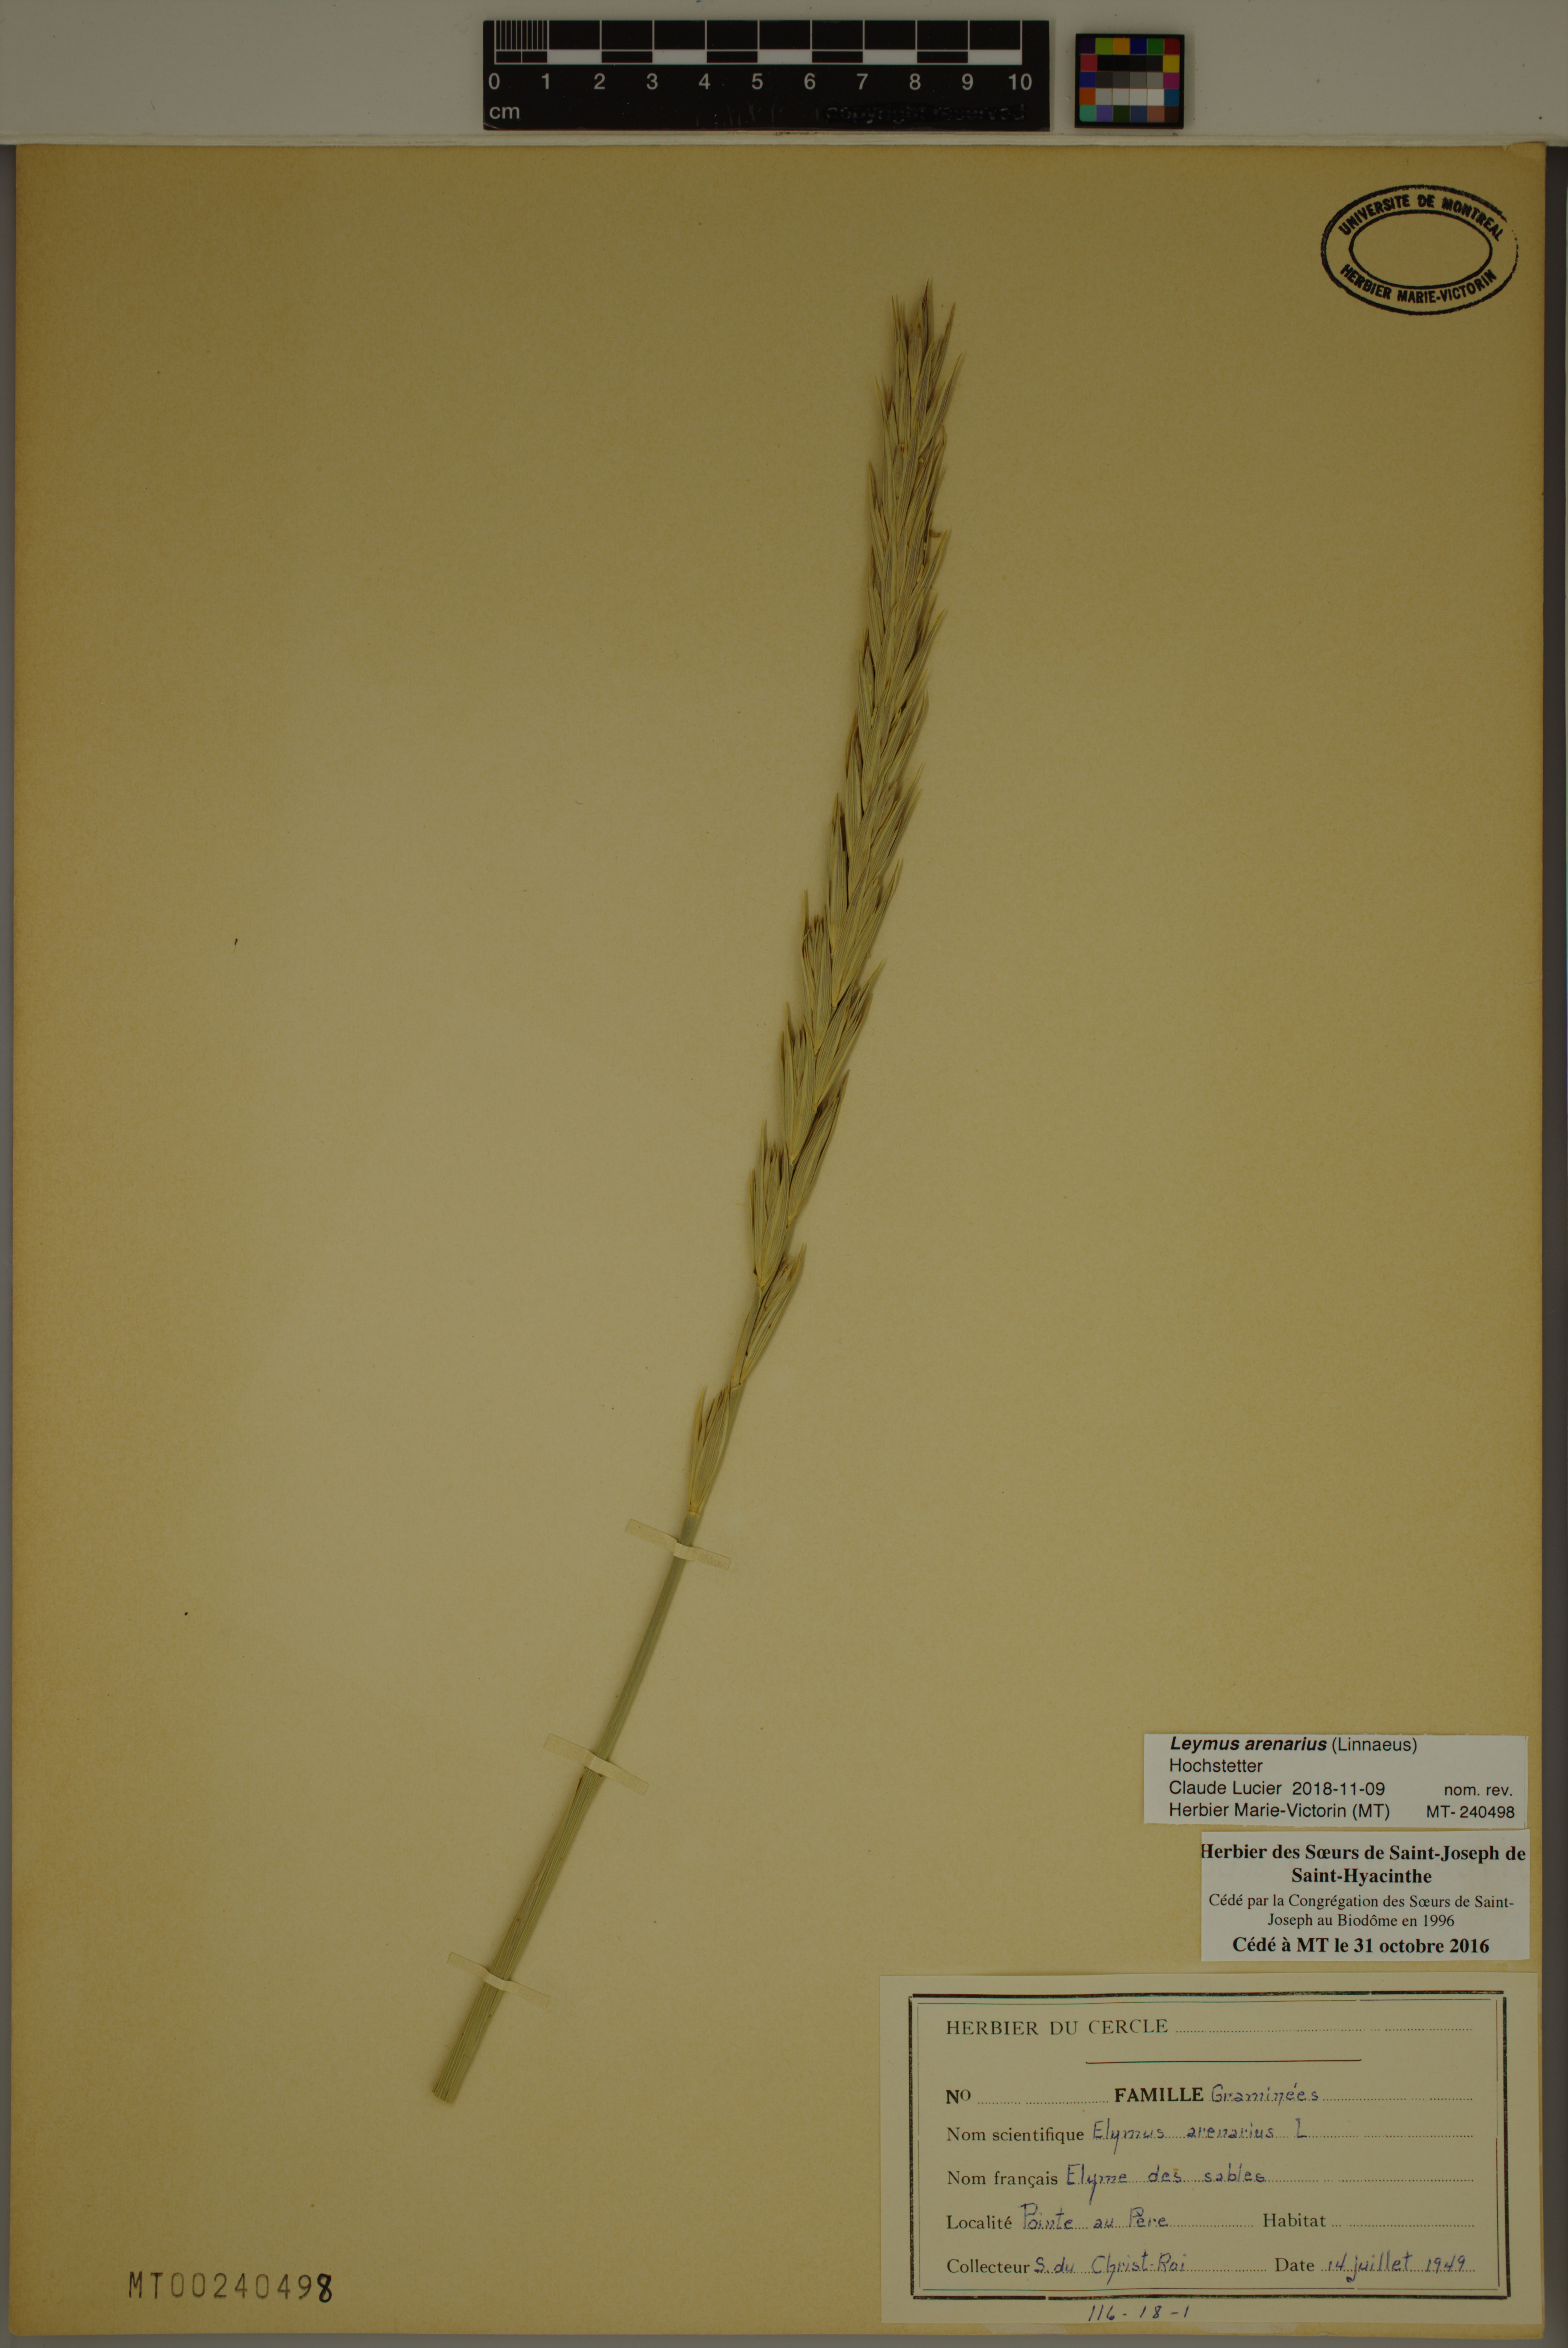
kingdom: Plantae
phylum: Tracheophyta
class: Liliopsida
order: Poales
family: Poaceae
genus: Leymus
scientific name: Leymus arenarius
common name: Lyme-grass
